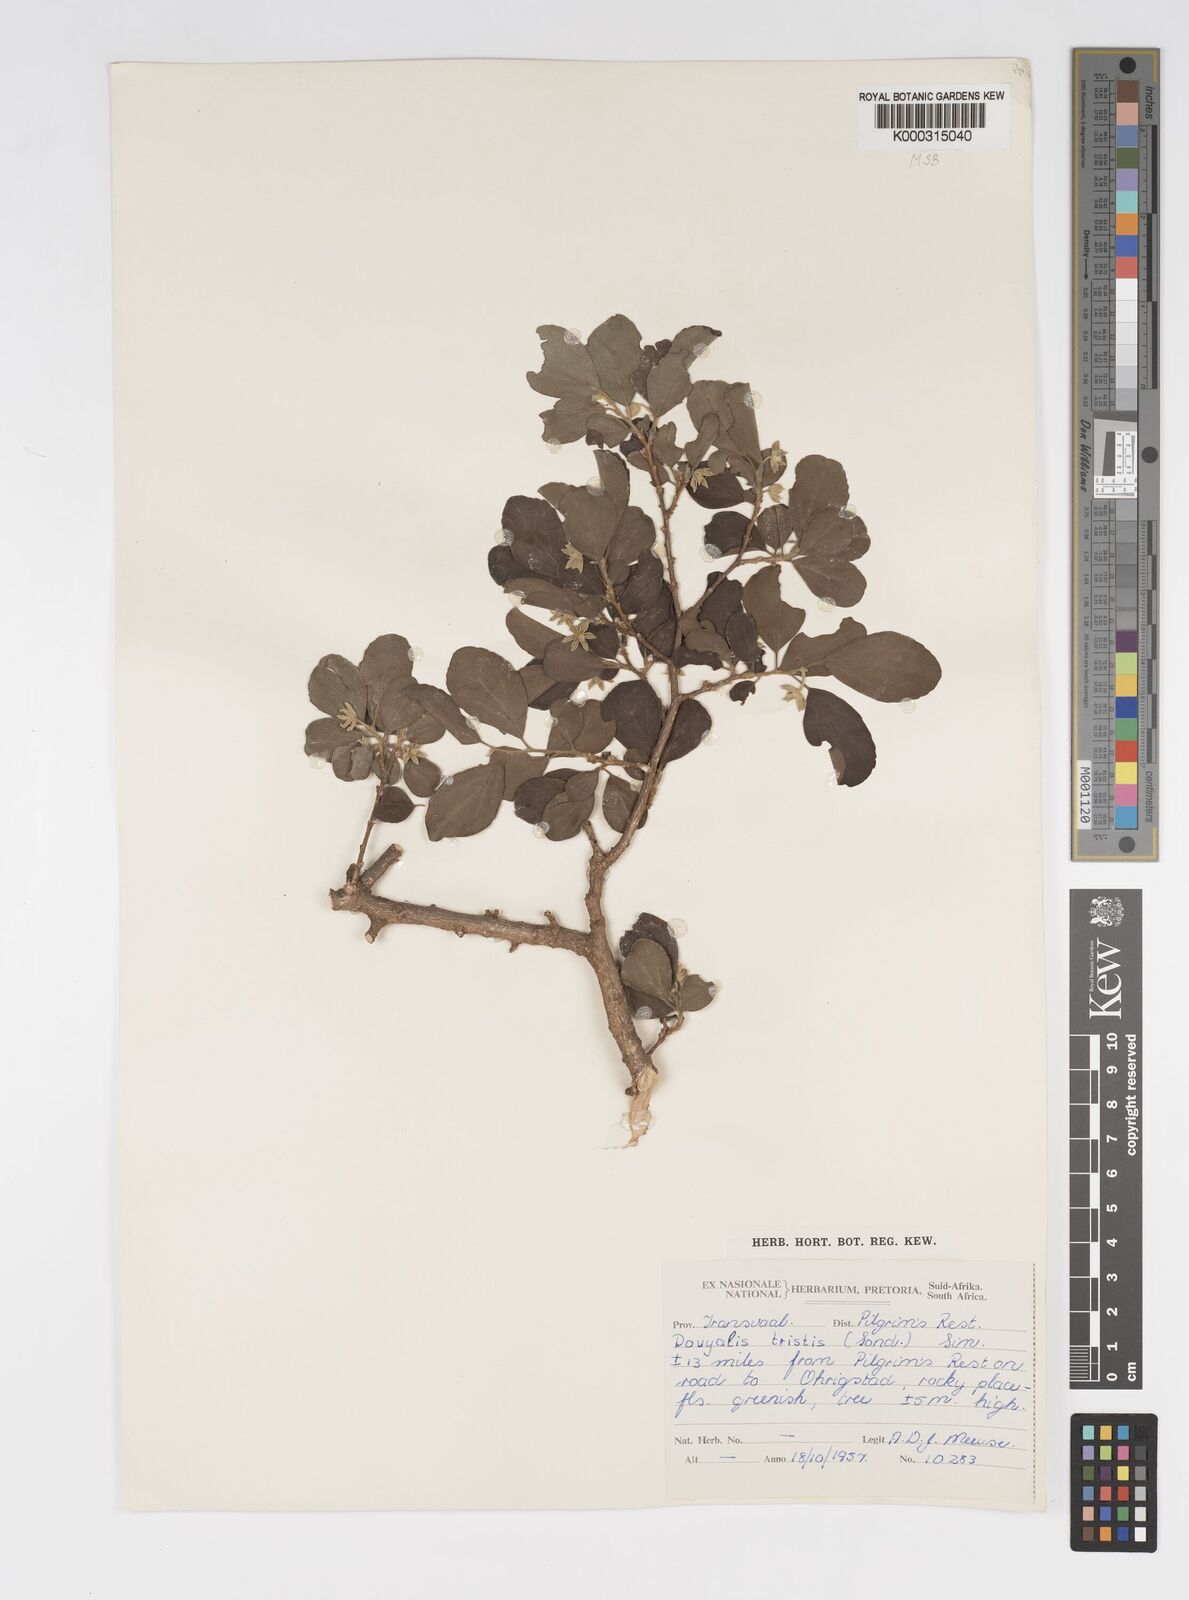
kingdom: Plantae
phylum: Tracheophyta
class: Magnoliopsida
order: Malpighiales
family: Salicaceae
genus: Dovyalis
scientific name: Dovyalis zeyheri
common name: Apricot sourberry
